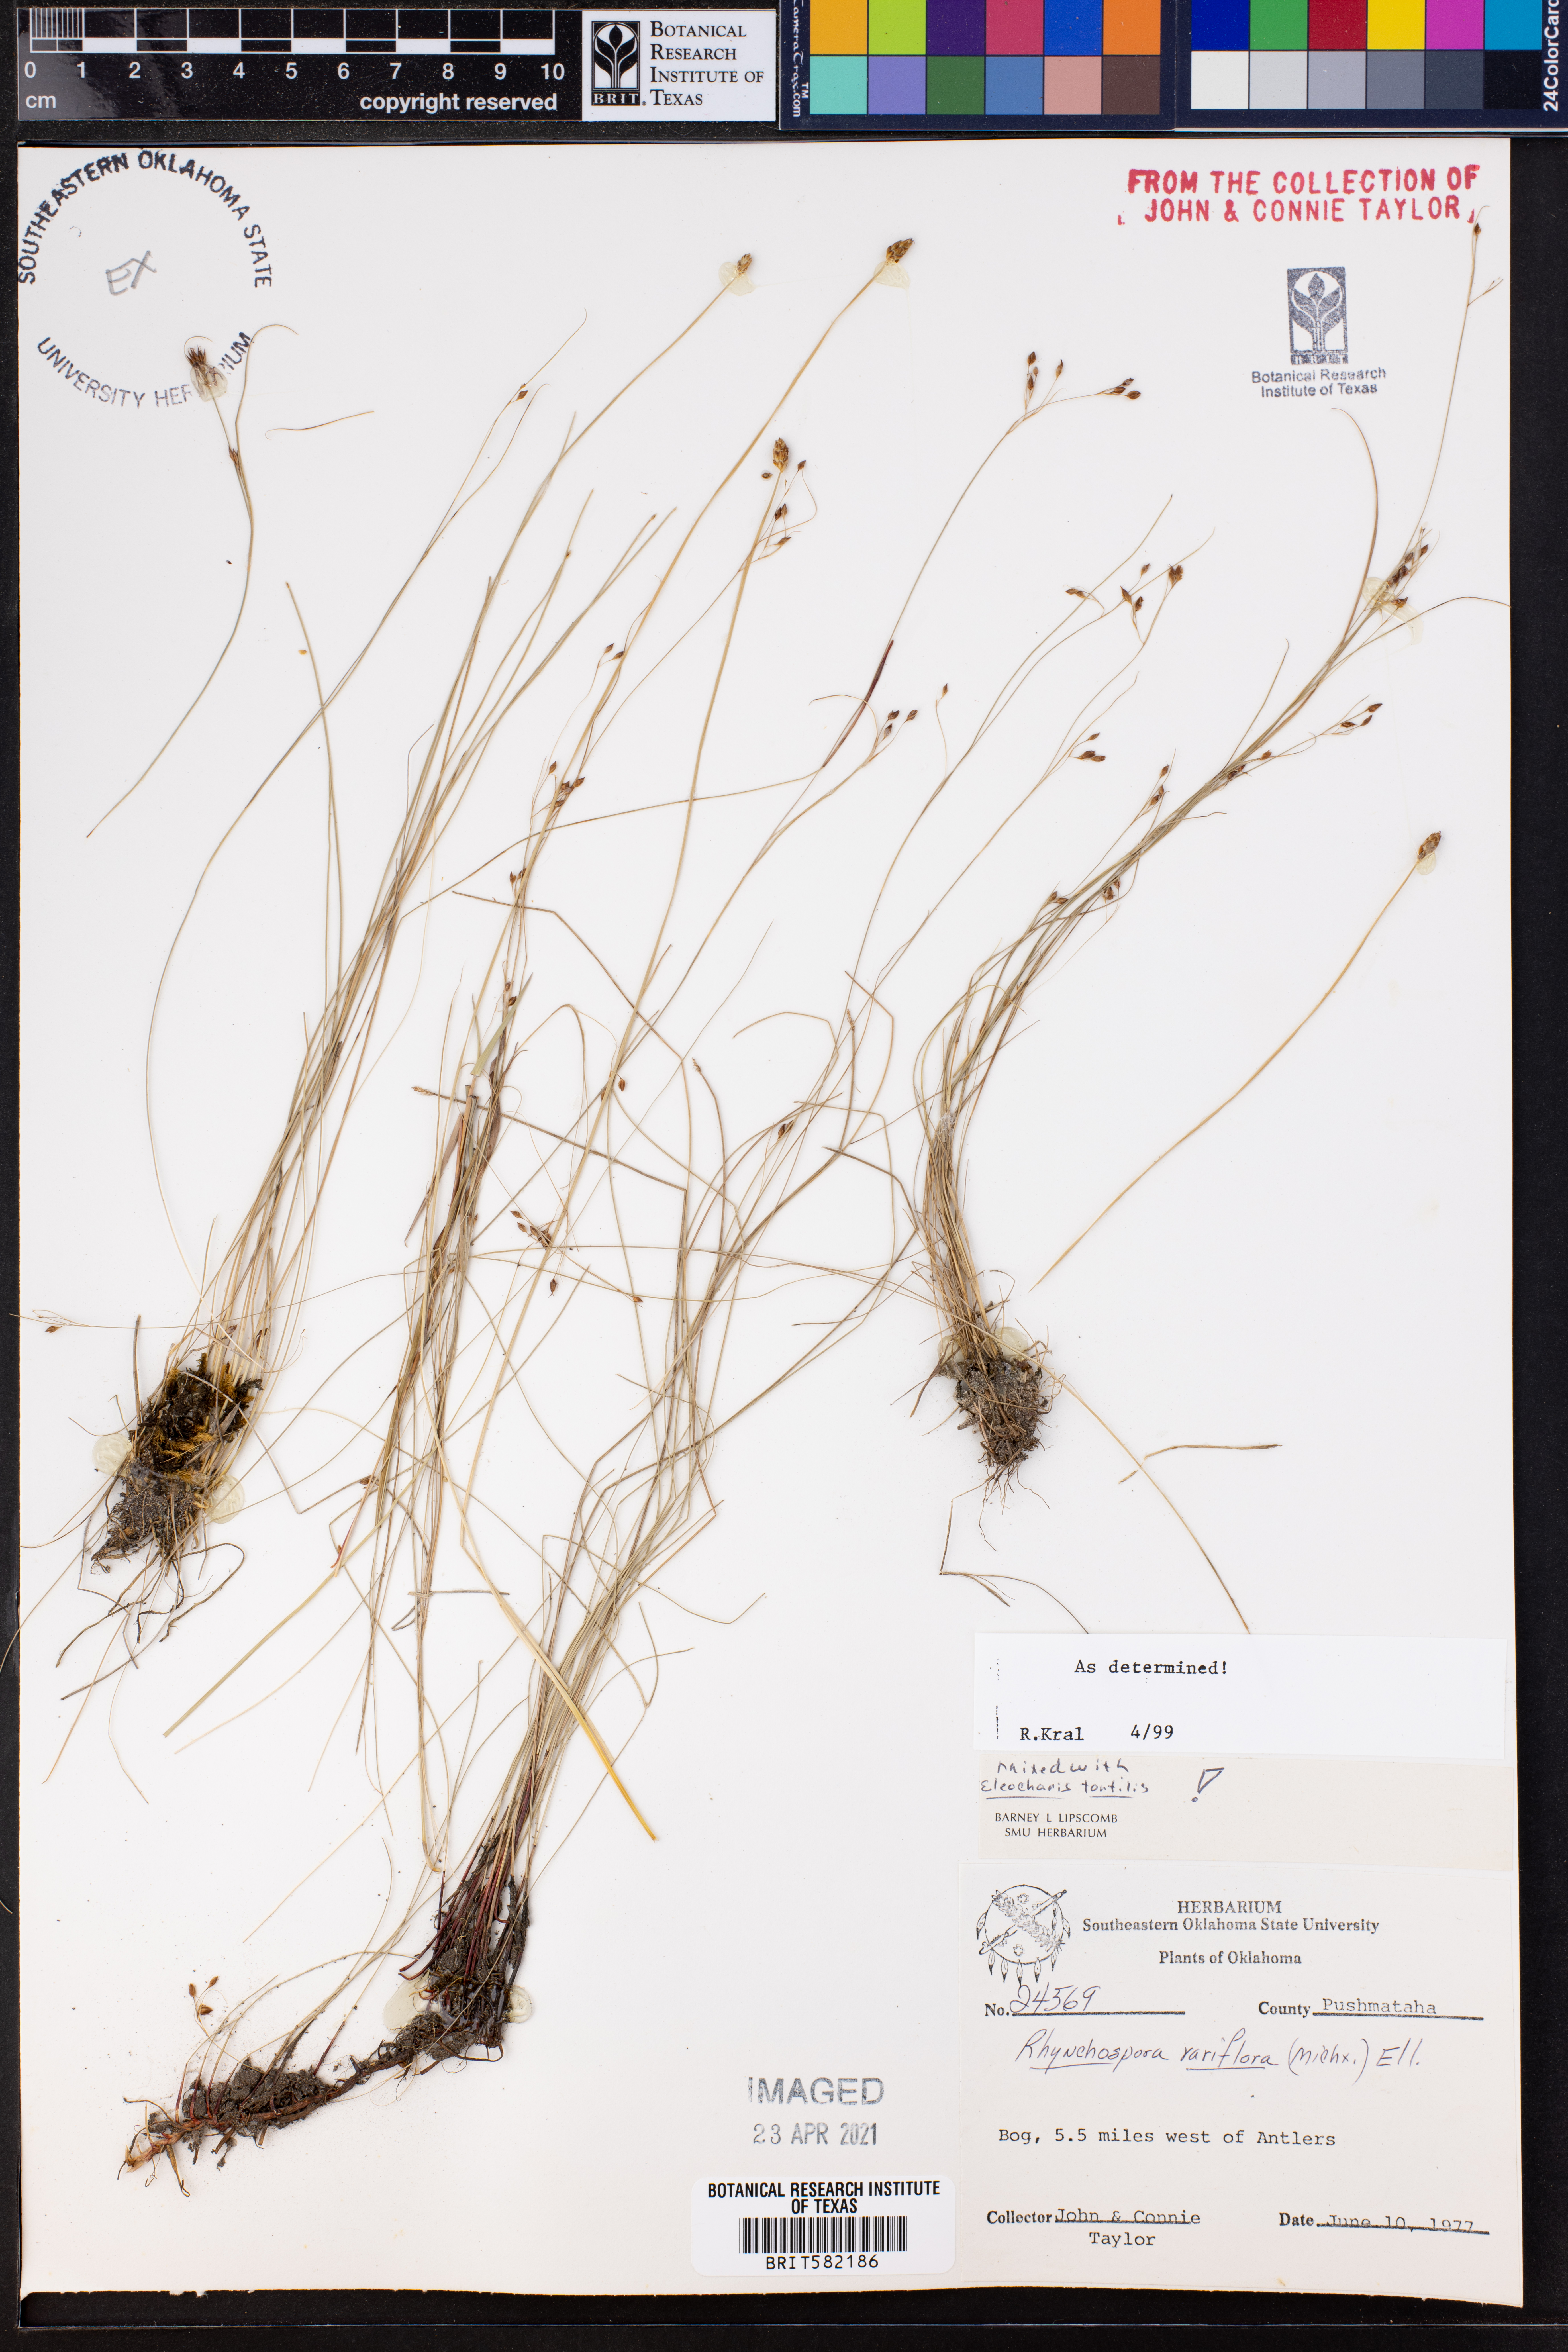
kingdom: Plantae
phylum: Tracheophyta
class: Liliopsida
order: Poales
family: Cyperaceae
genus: Rhynchospora
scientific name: Rhynchospora rariflora
